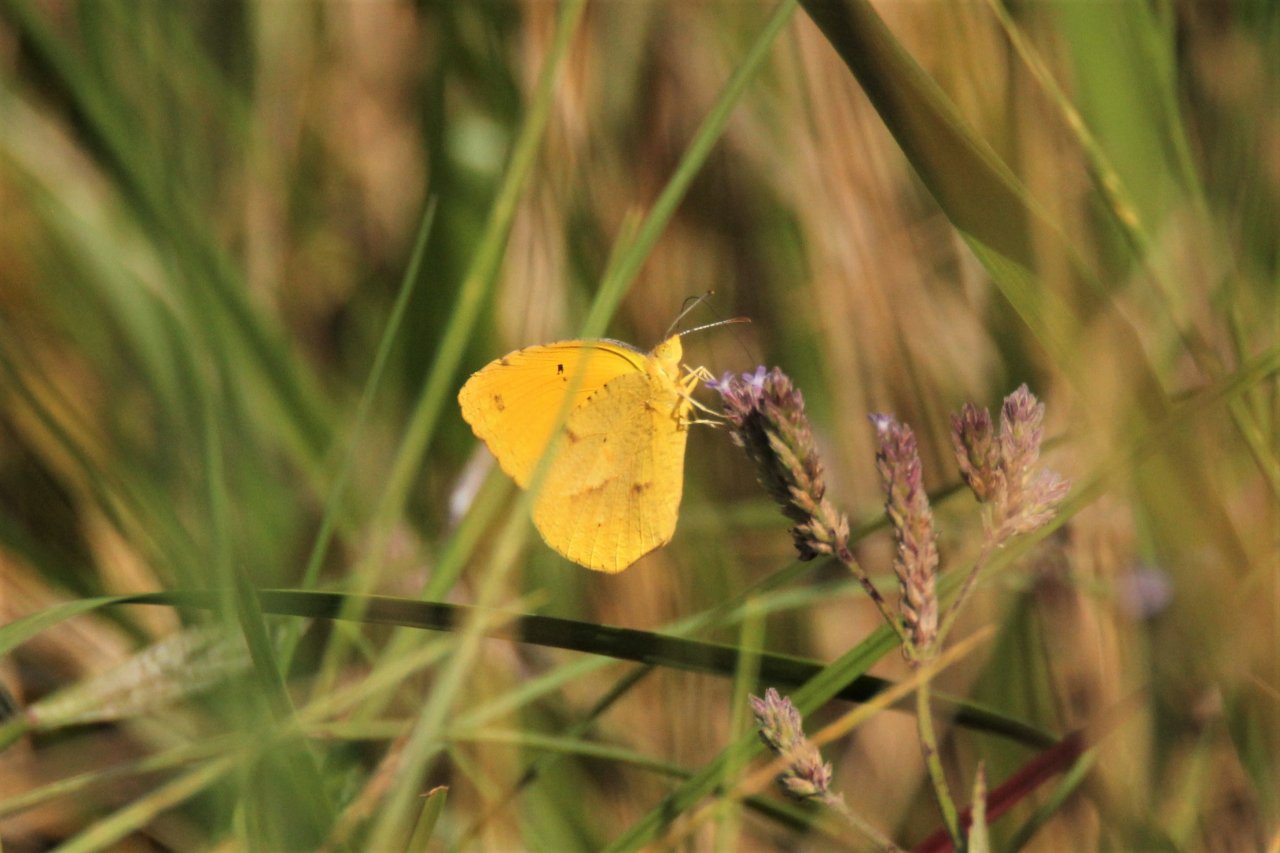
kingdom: Animalia
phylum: Arthropoda
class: Insecta
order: Lepidoptera
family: Pieridae
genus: Abaeis
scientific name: Abaeis nicippe
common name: Sleepy Orange
